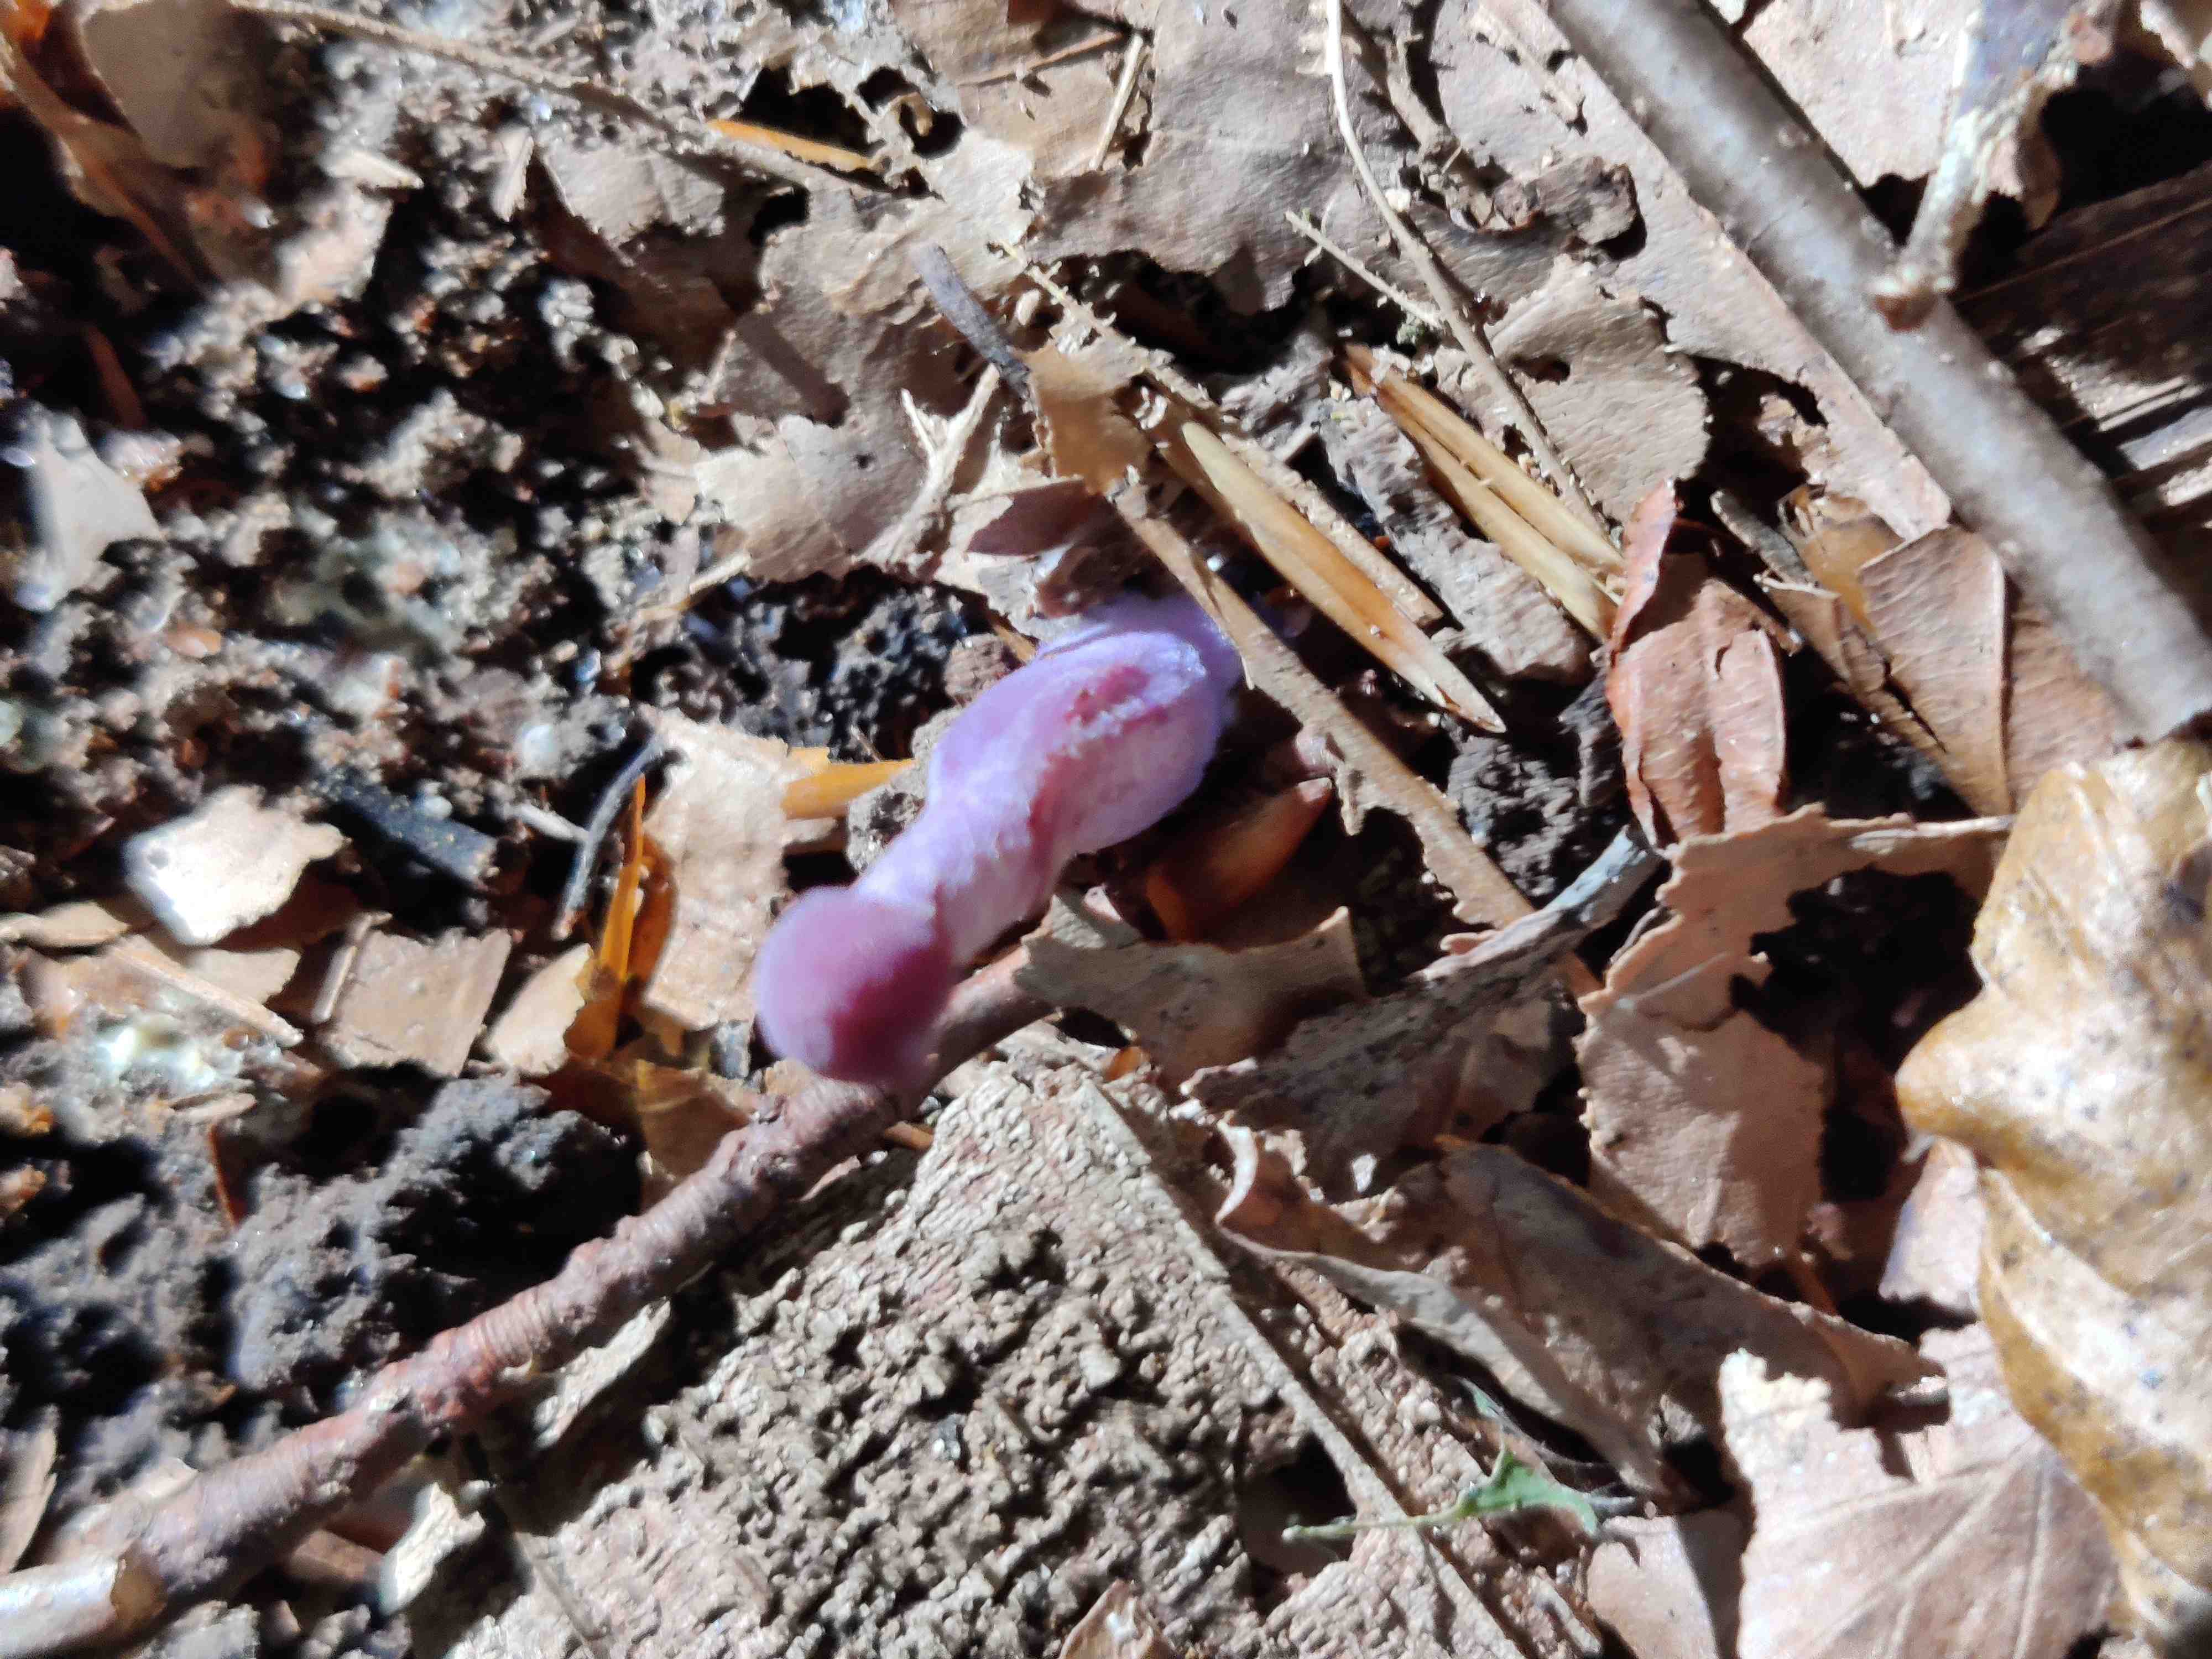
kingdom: Fungi
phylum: Basidiomycota
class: Agaricomycetes
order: Agaricales
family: Hydnangiaceae
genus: Laccaria
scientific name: Laccaria amethystina
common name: violet ametysthat
